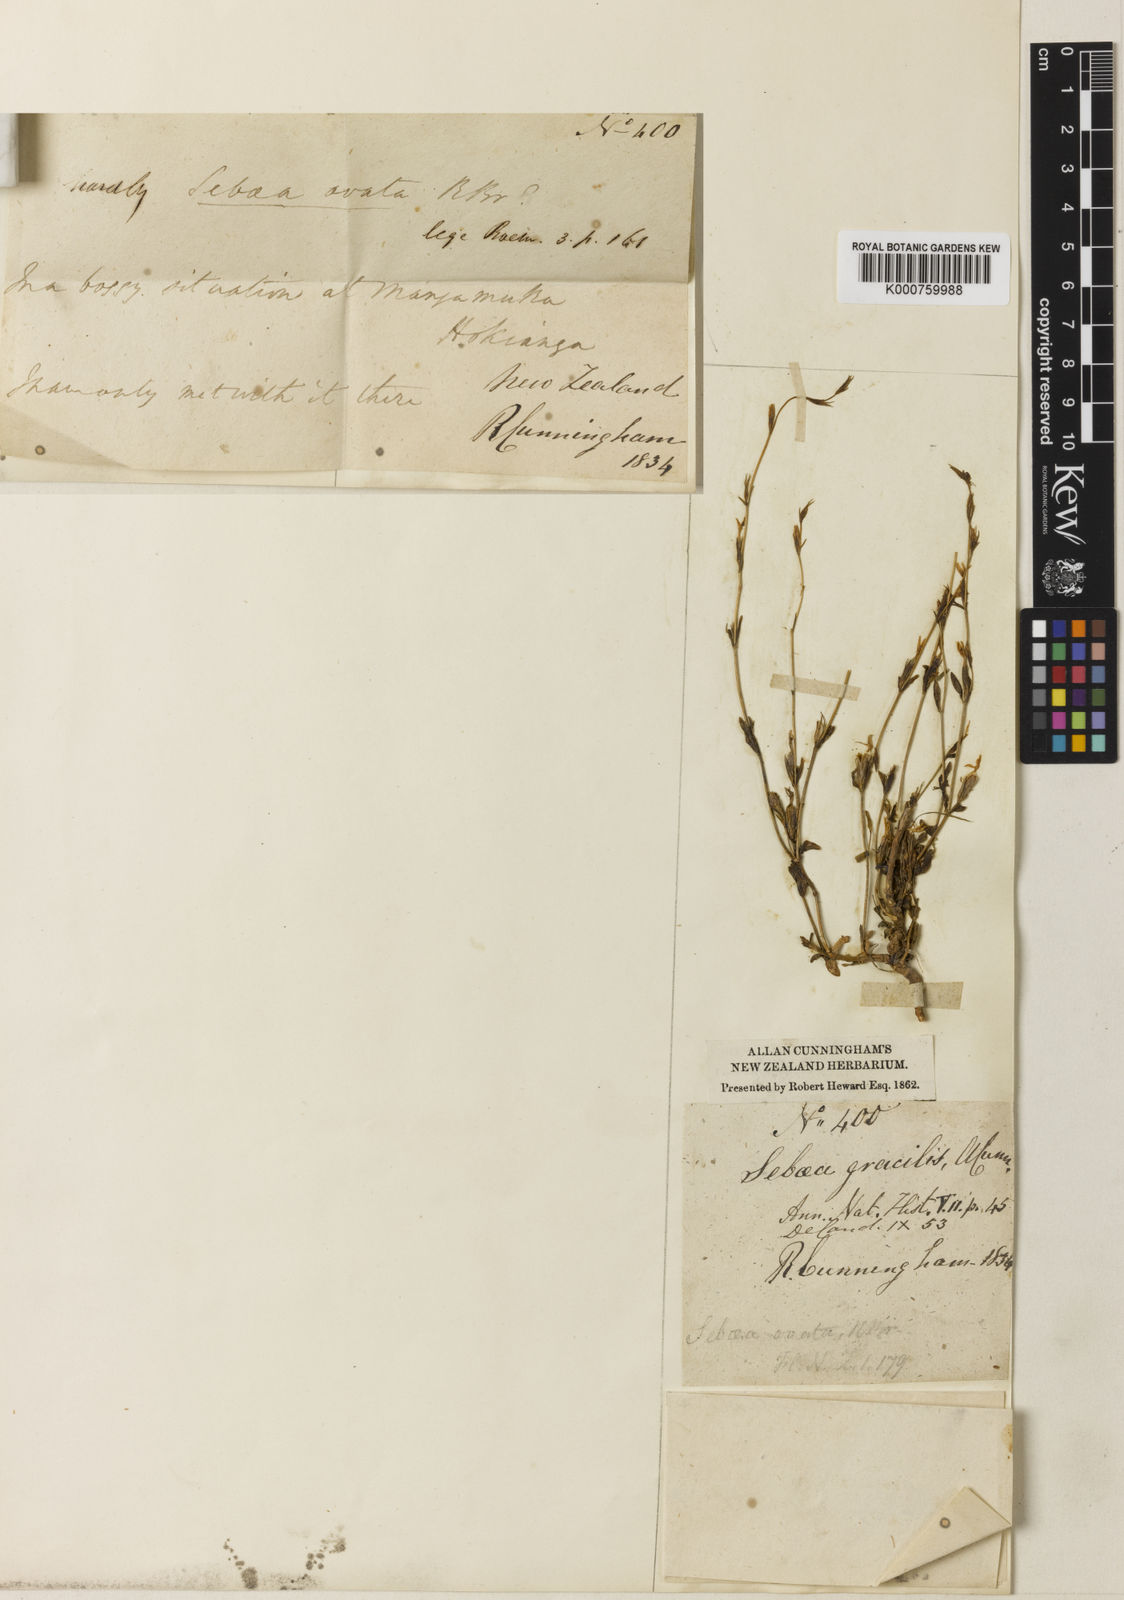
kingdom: Plantae
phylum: Tracheophyta
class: Magnoliopsida
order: Gentianales
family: Gentianaceae
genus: Sebaea
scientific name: Sebaea ovata
